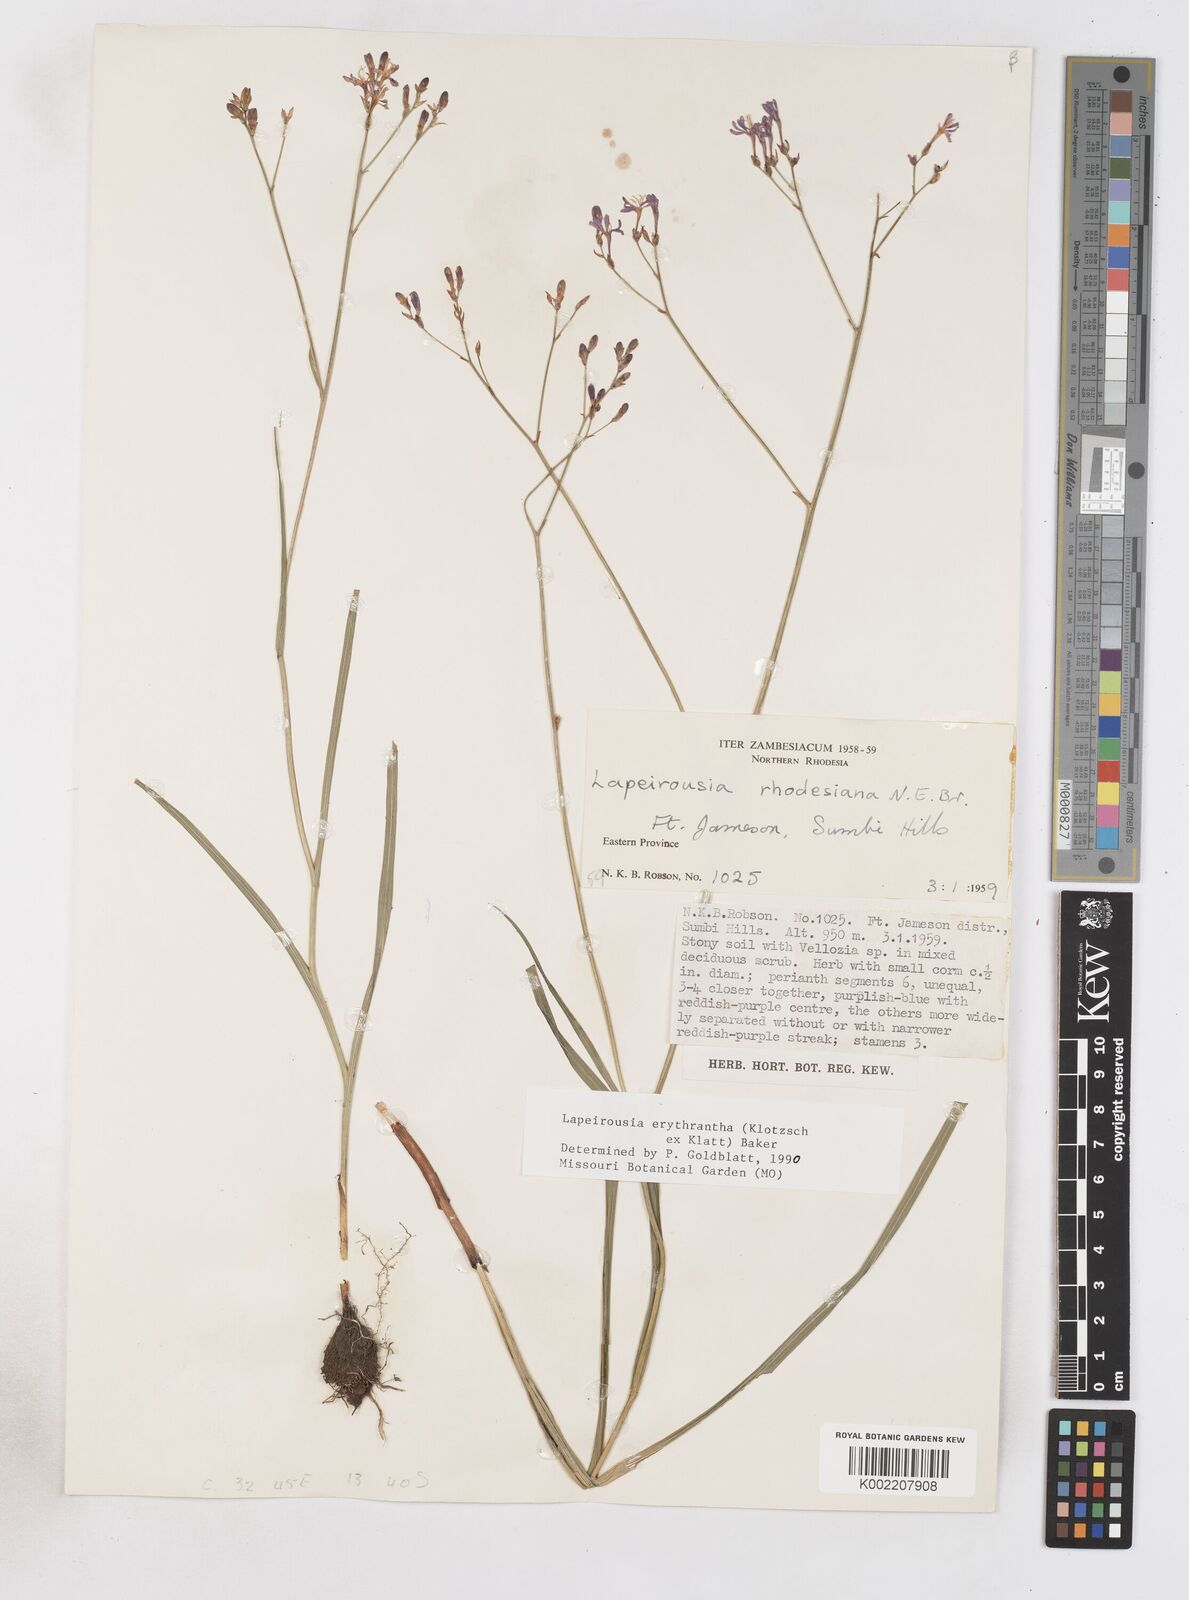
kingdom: Plantae
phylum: Tracheophyta
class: Liliopsida
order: Asparagales
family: Iridaceae
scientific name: Iridaceae
